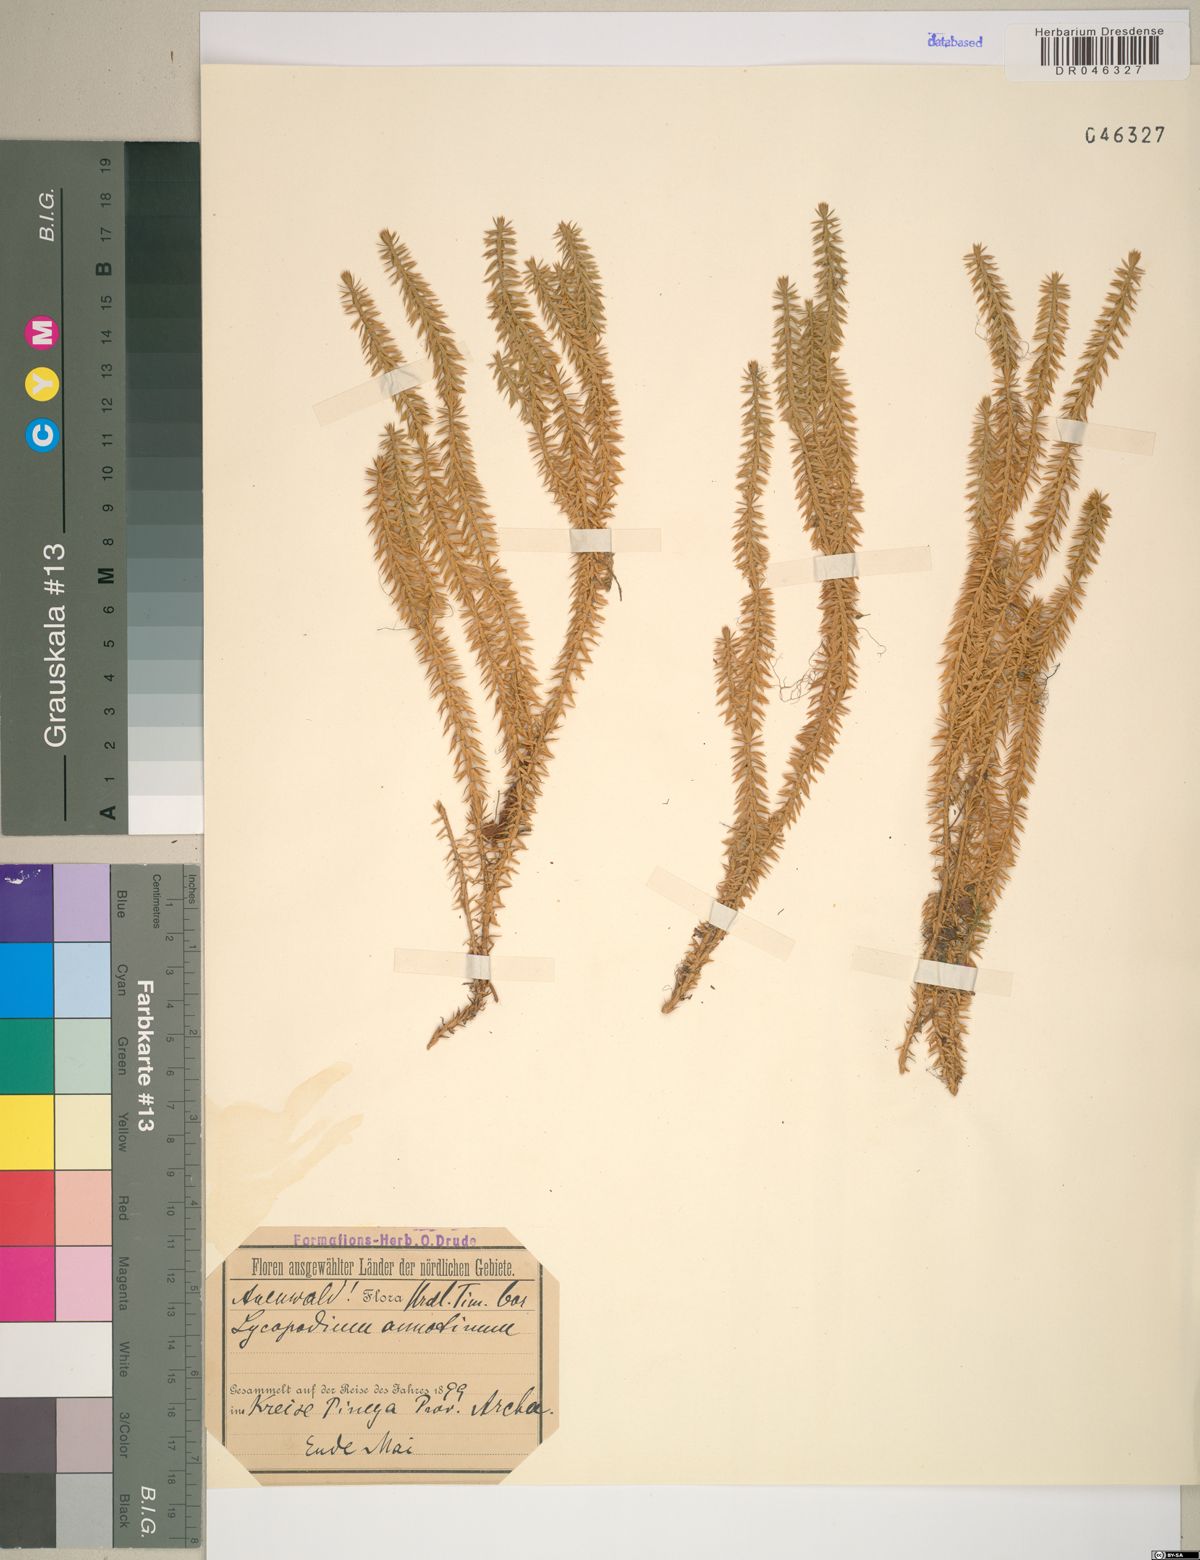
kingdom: Plantae
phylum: Tracheophyta
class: Lycopodiopsida
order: Lycopodiales
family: Lycopodiaceae
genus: Spinulum
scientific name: Spinulum annotinum
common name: Interrupted club-moss
